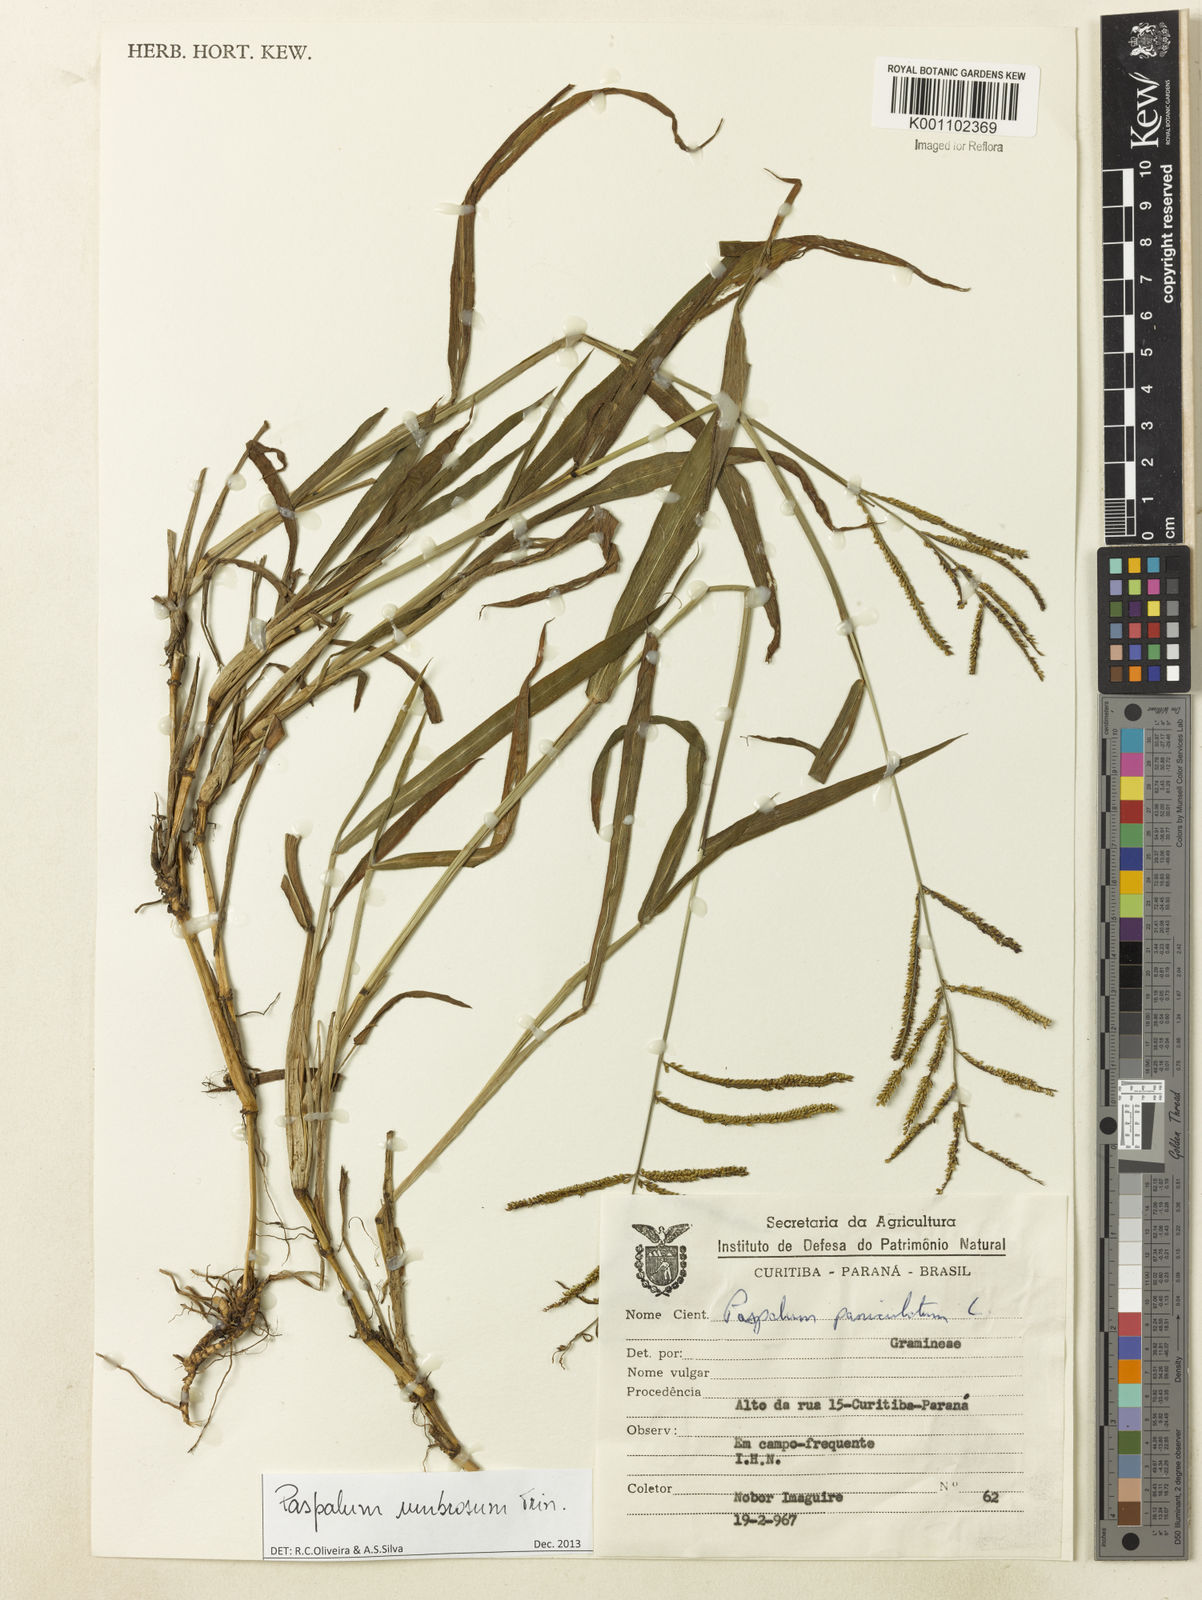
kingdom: Plantae
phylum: Tracheophyta
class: Liliopsida
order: Poales
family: Poaceae
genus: Paspalum
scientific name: Paspalum umbrosum
